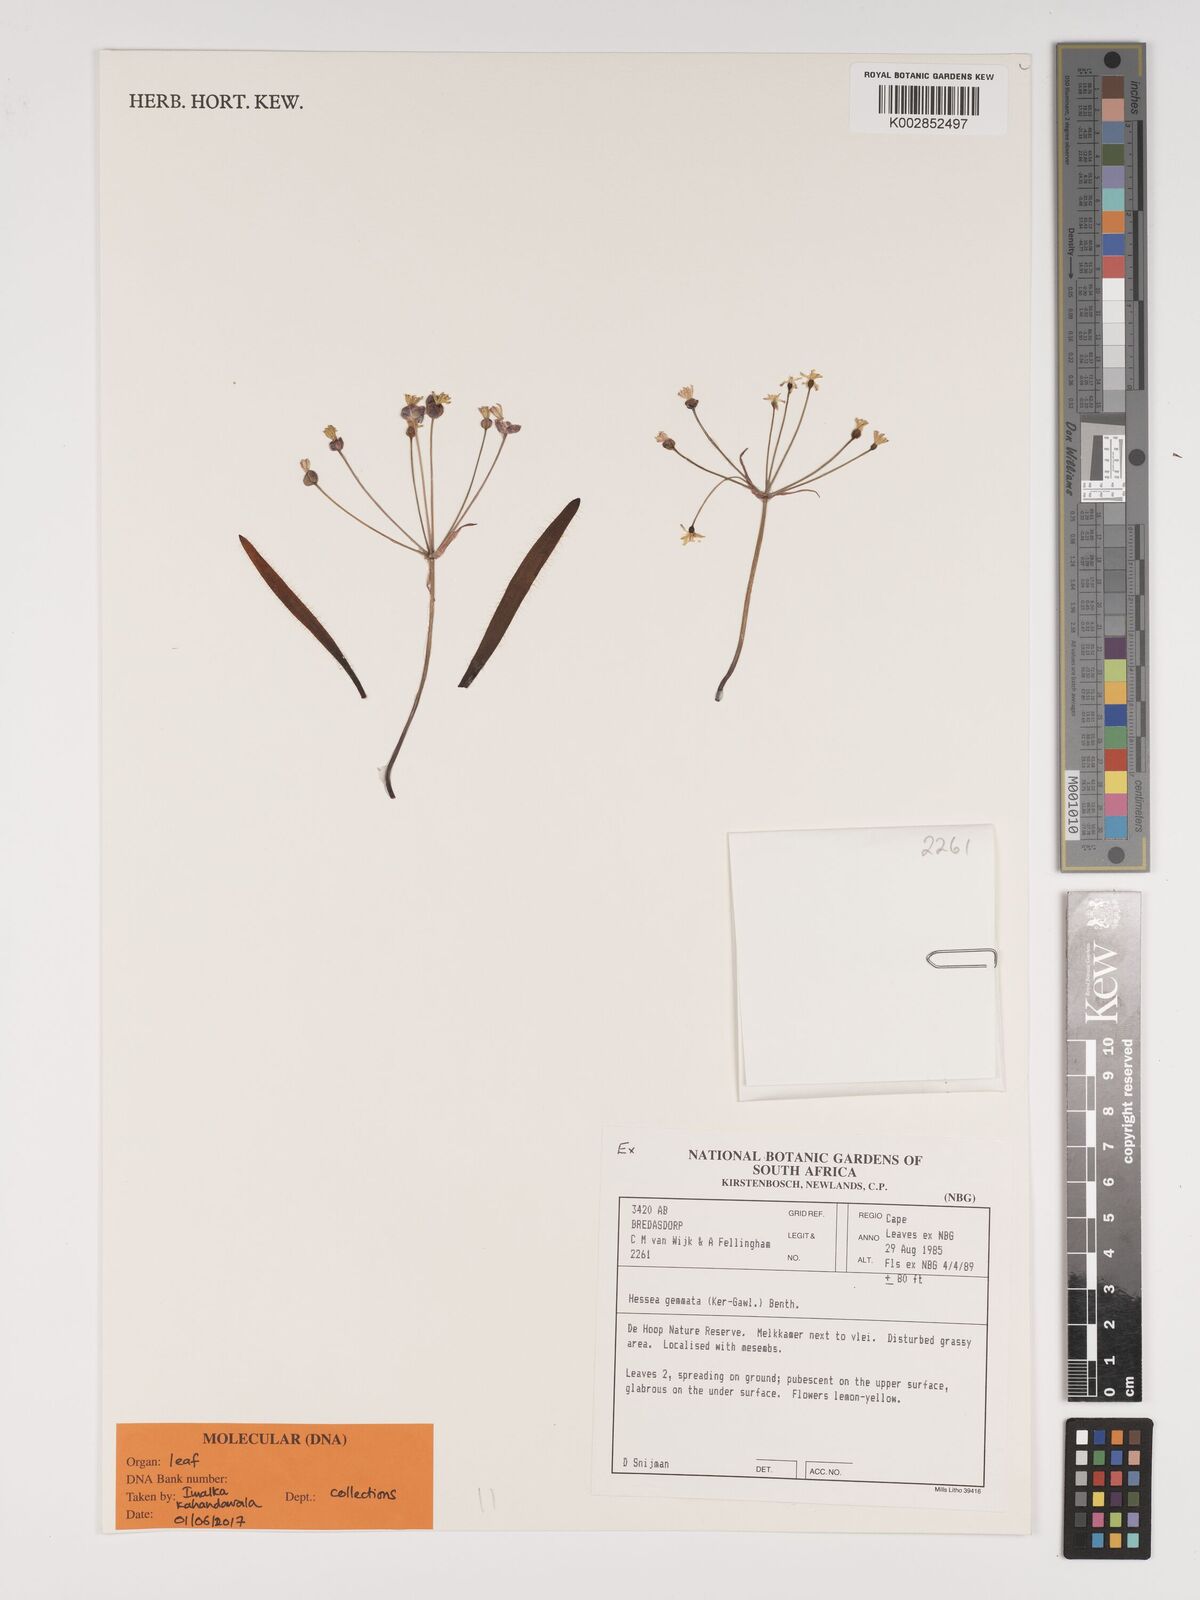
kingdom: Plantae
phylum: Tracheophyta
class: Liliopsida
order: Asparagales
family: Amaryllidaceae
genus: Strumaria
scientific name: Strumaria gemmata
